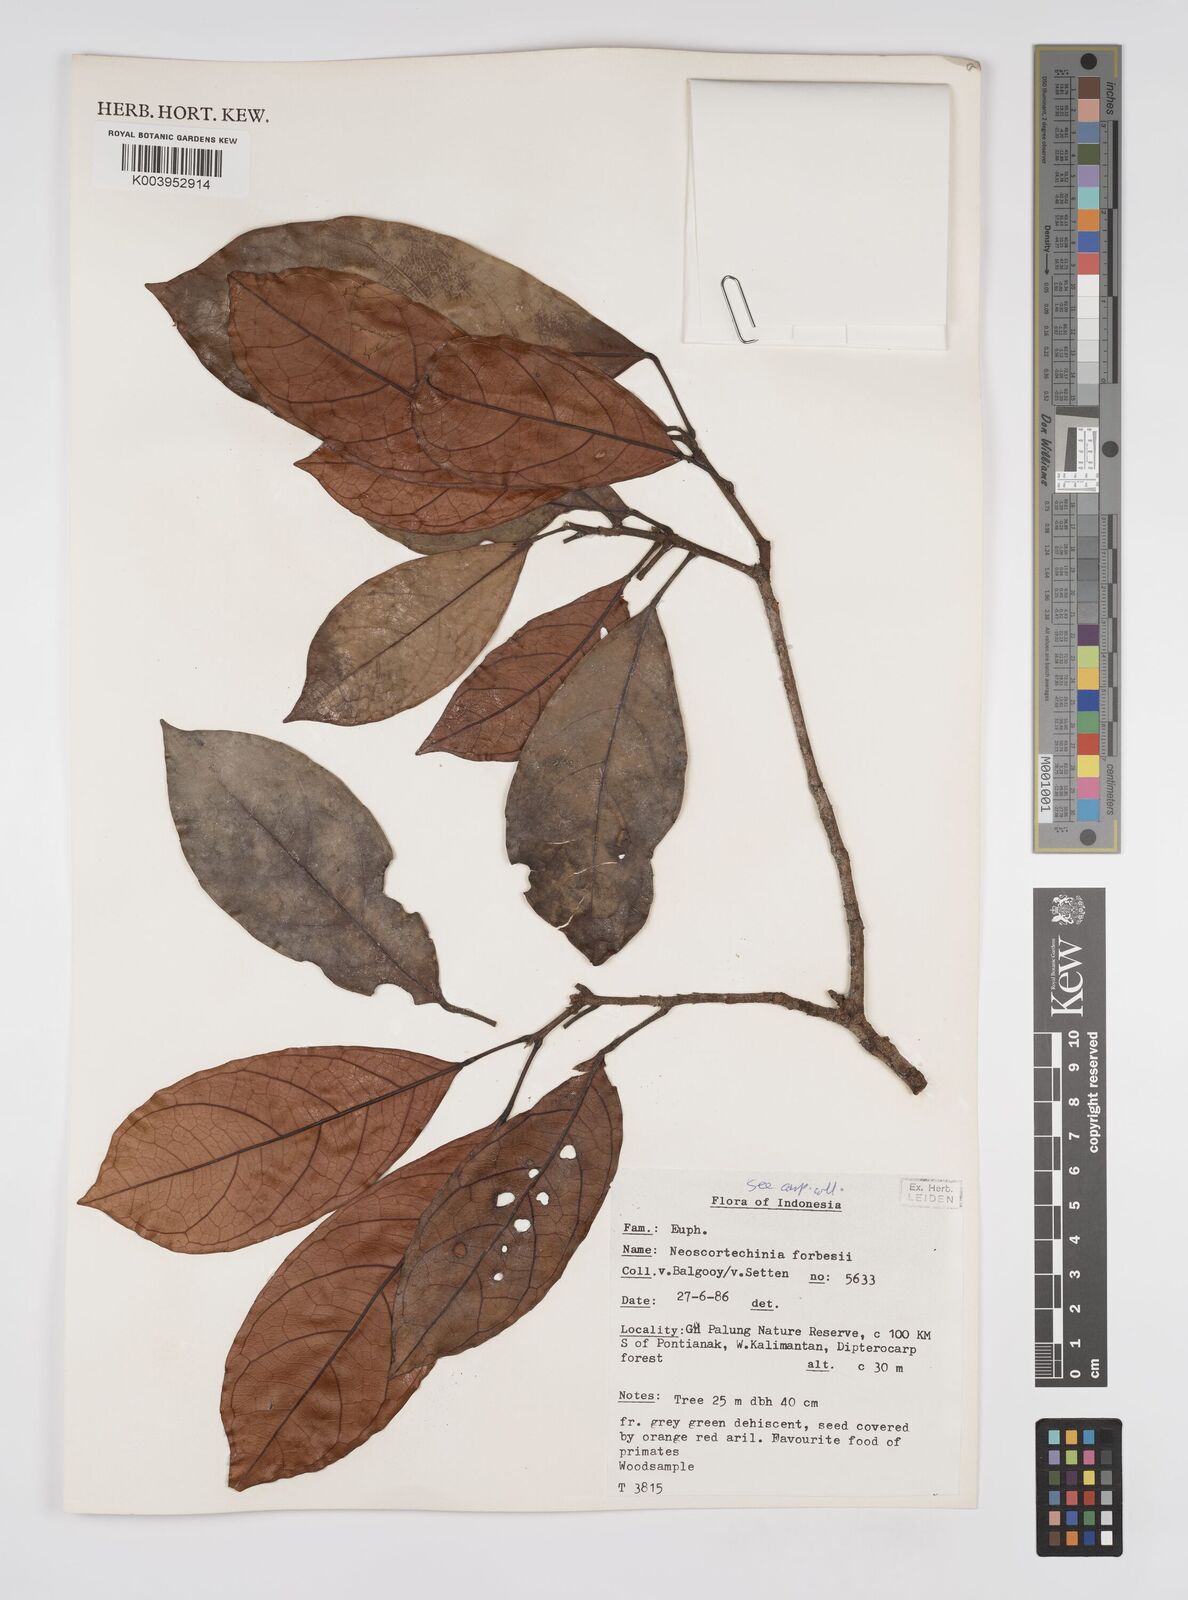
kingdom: Plantae
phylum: Tracheophyta
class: Magnoliopsida
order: Malpighiales
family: Euphorbiaceae
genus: Neoscortechinia
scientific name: Neoscortechinia philippinensis
